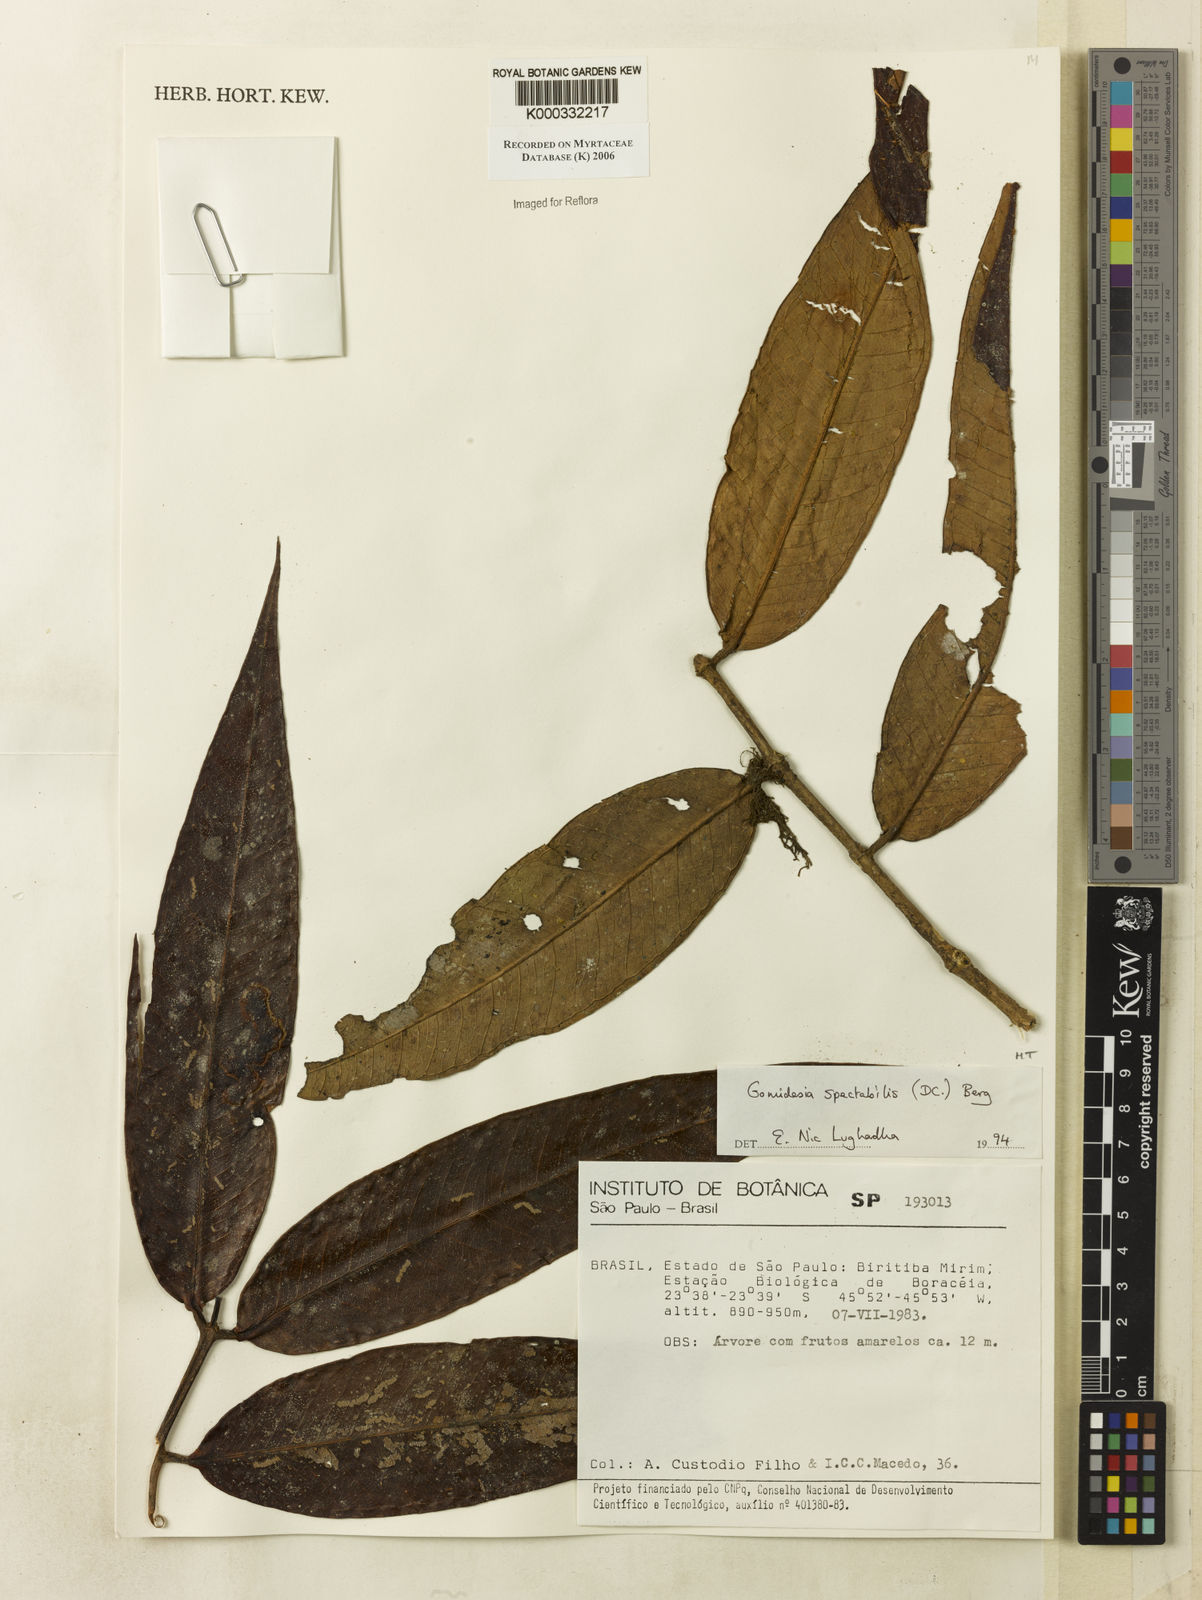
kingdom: Plantae
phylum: Tracheophyta
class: Magnoliopsida
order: Myrtales
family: Myrtaceae
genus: Myrcia
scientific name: Myrcia spectabilis
